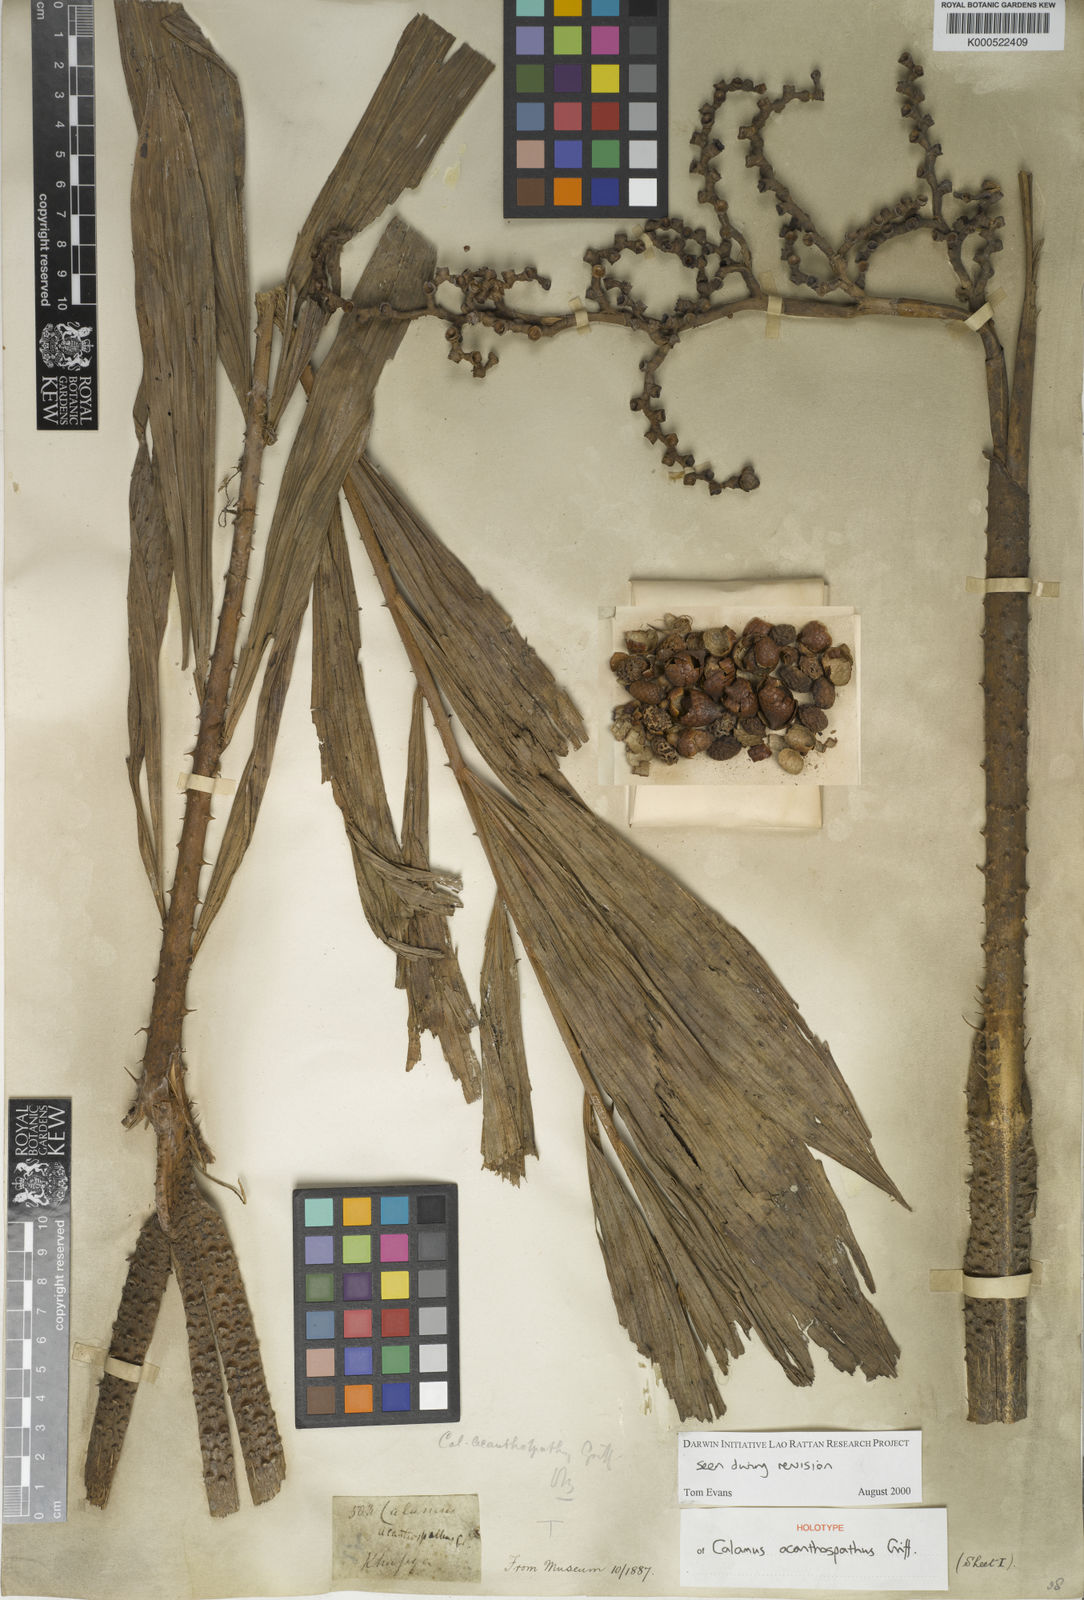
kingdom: Plantae
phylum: Tracheophyta
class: Liliopsida
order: Arecales
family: Arecaceae
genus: Calamus
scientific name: Calamus acanthospathus
